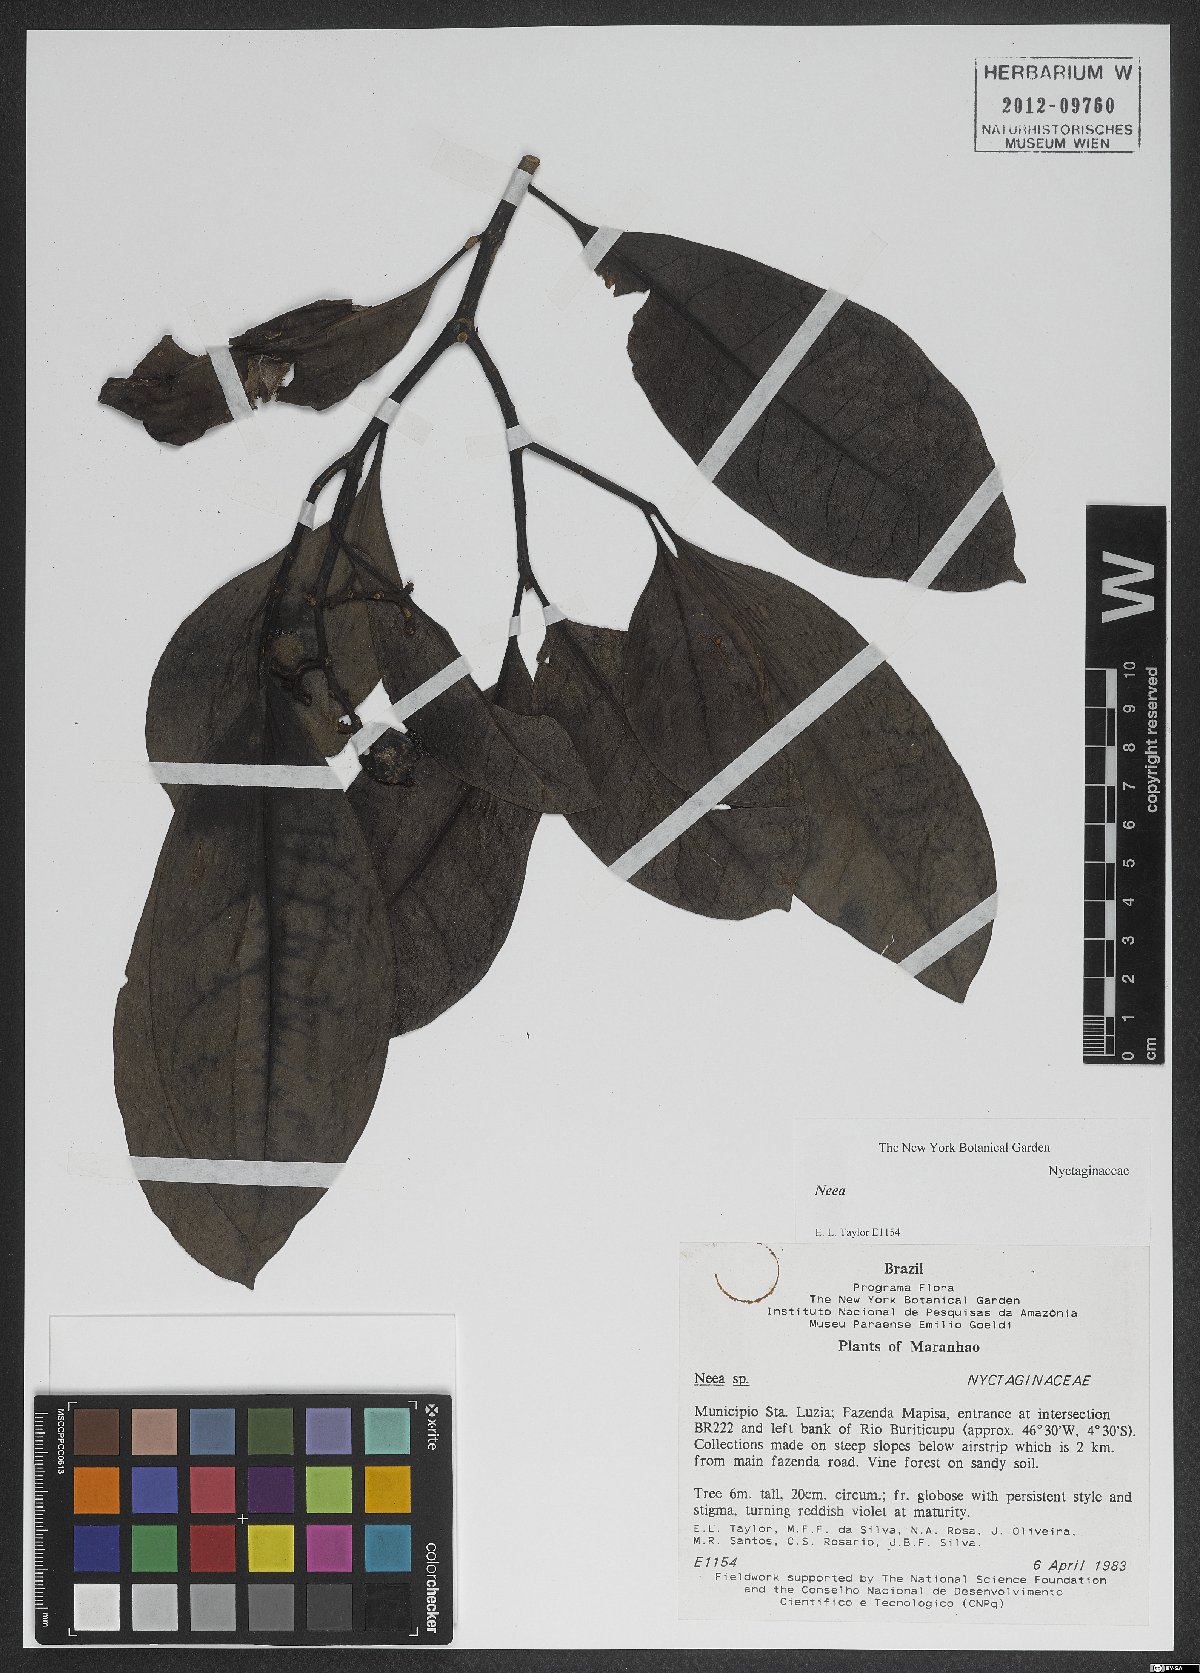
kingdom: Plantae
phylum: Tracheophyta
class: Magnoliopsida
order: Caryophyllales
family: Nyctaginaceae
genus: Neea
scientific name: Neea
